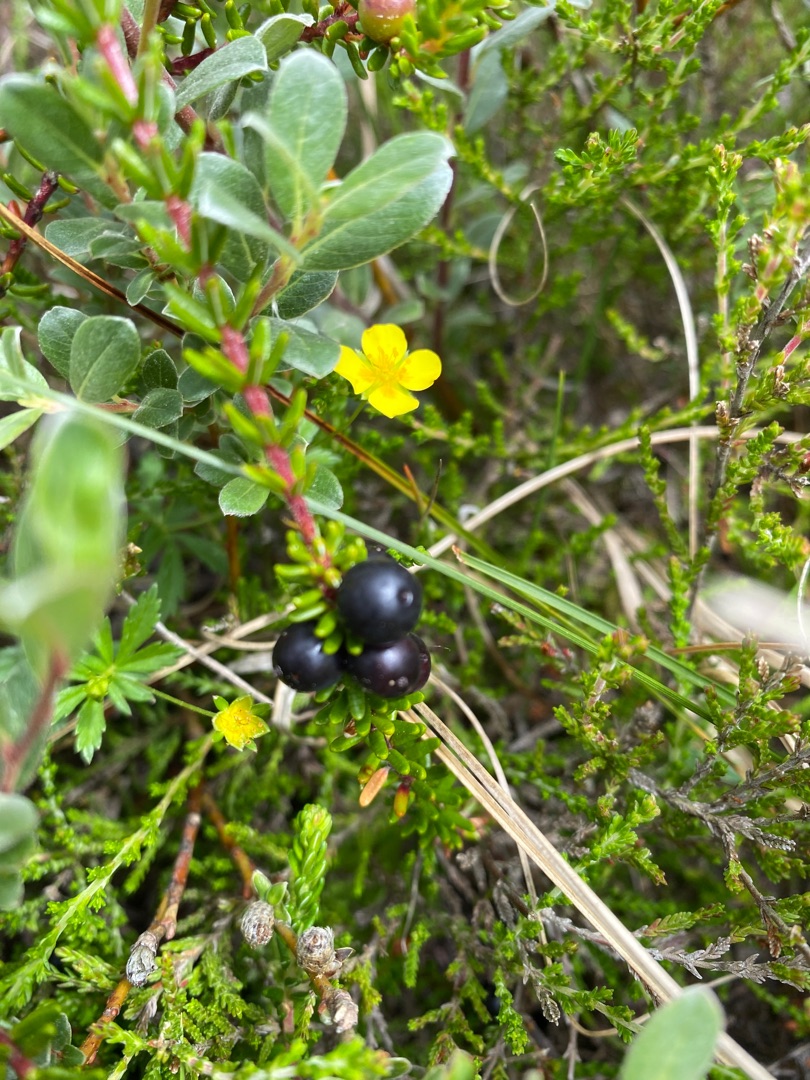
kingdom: Plantae
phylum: Tracheophyta
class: Magnoliopsida
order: Ericales
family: Ericaceae
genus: Empetrum
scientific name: Empetrum nigrum
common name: Revling
